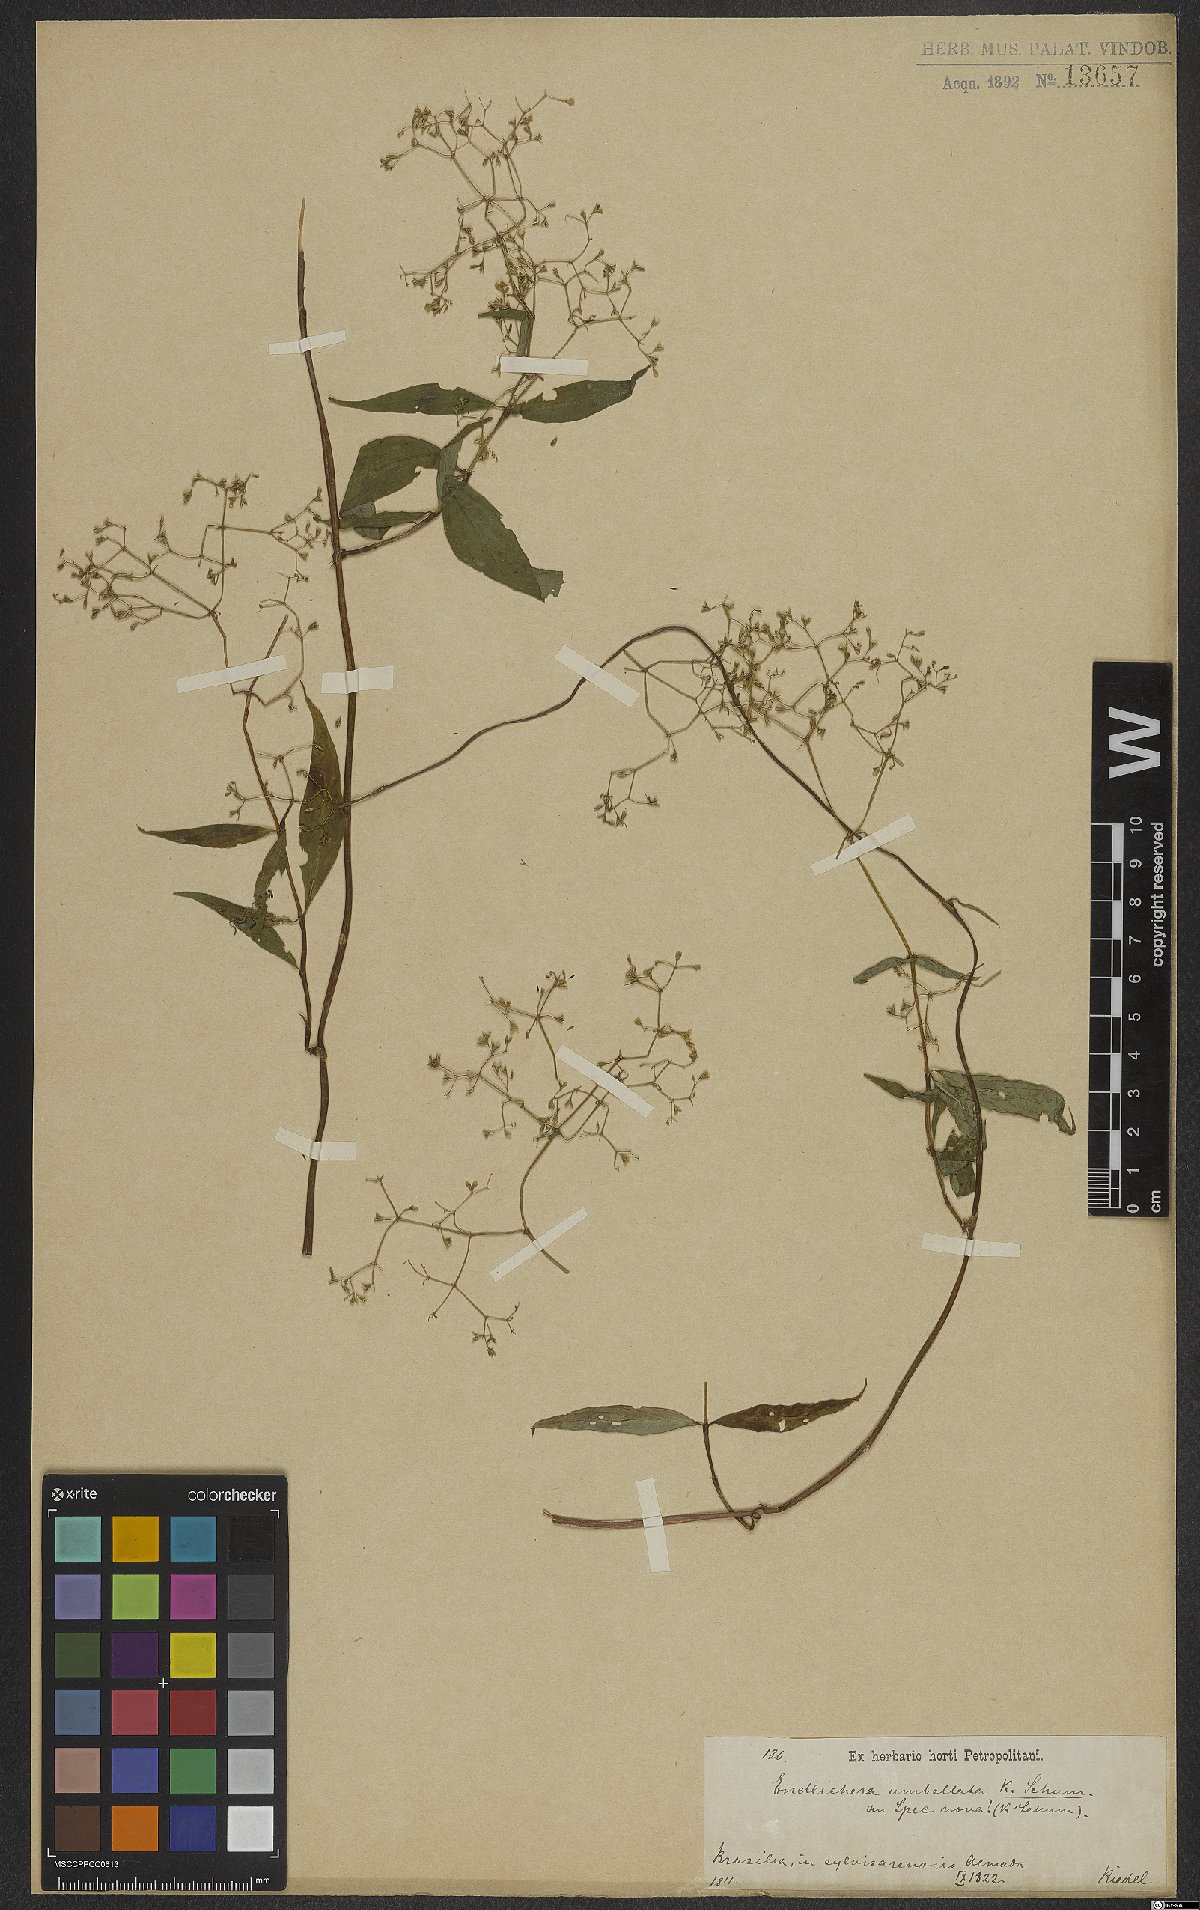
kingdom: Plantae
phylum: Tracheophyta
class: Magnoliopsida
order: Gentianales
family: Rubiaceae
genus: Emmeorhiza
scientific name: Emmeorhiza umbellata
